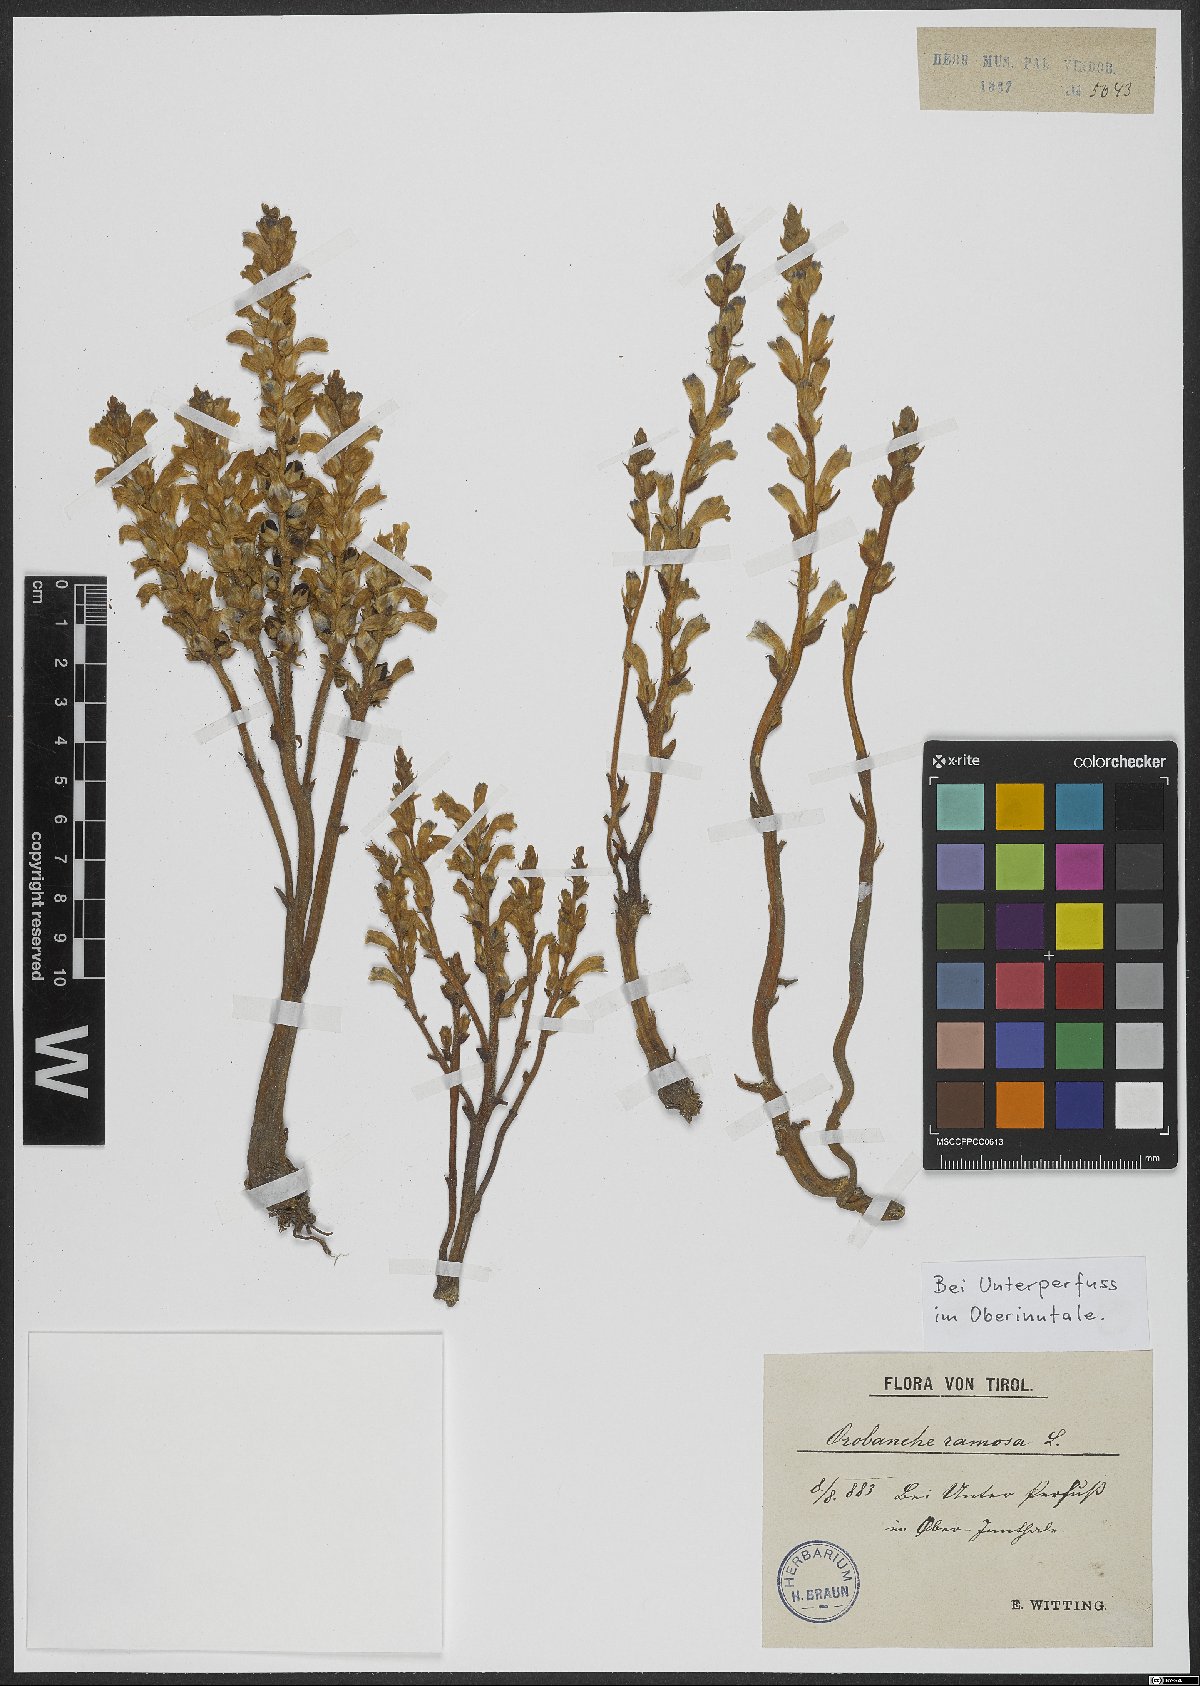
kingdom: Plantae
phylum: Tracheophyta
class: Magnoliopsida
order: Lamiales
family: Orobanchaceae
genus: Phelipanche
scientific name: Phelipanche ramosa
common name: Branched broomrape
